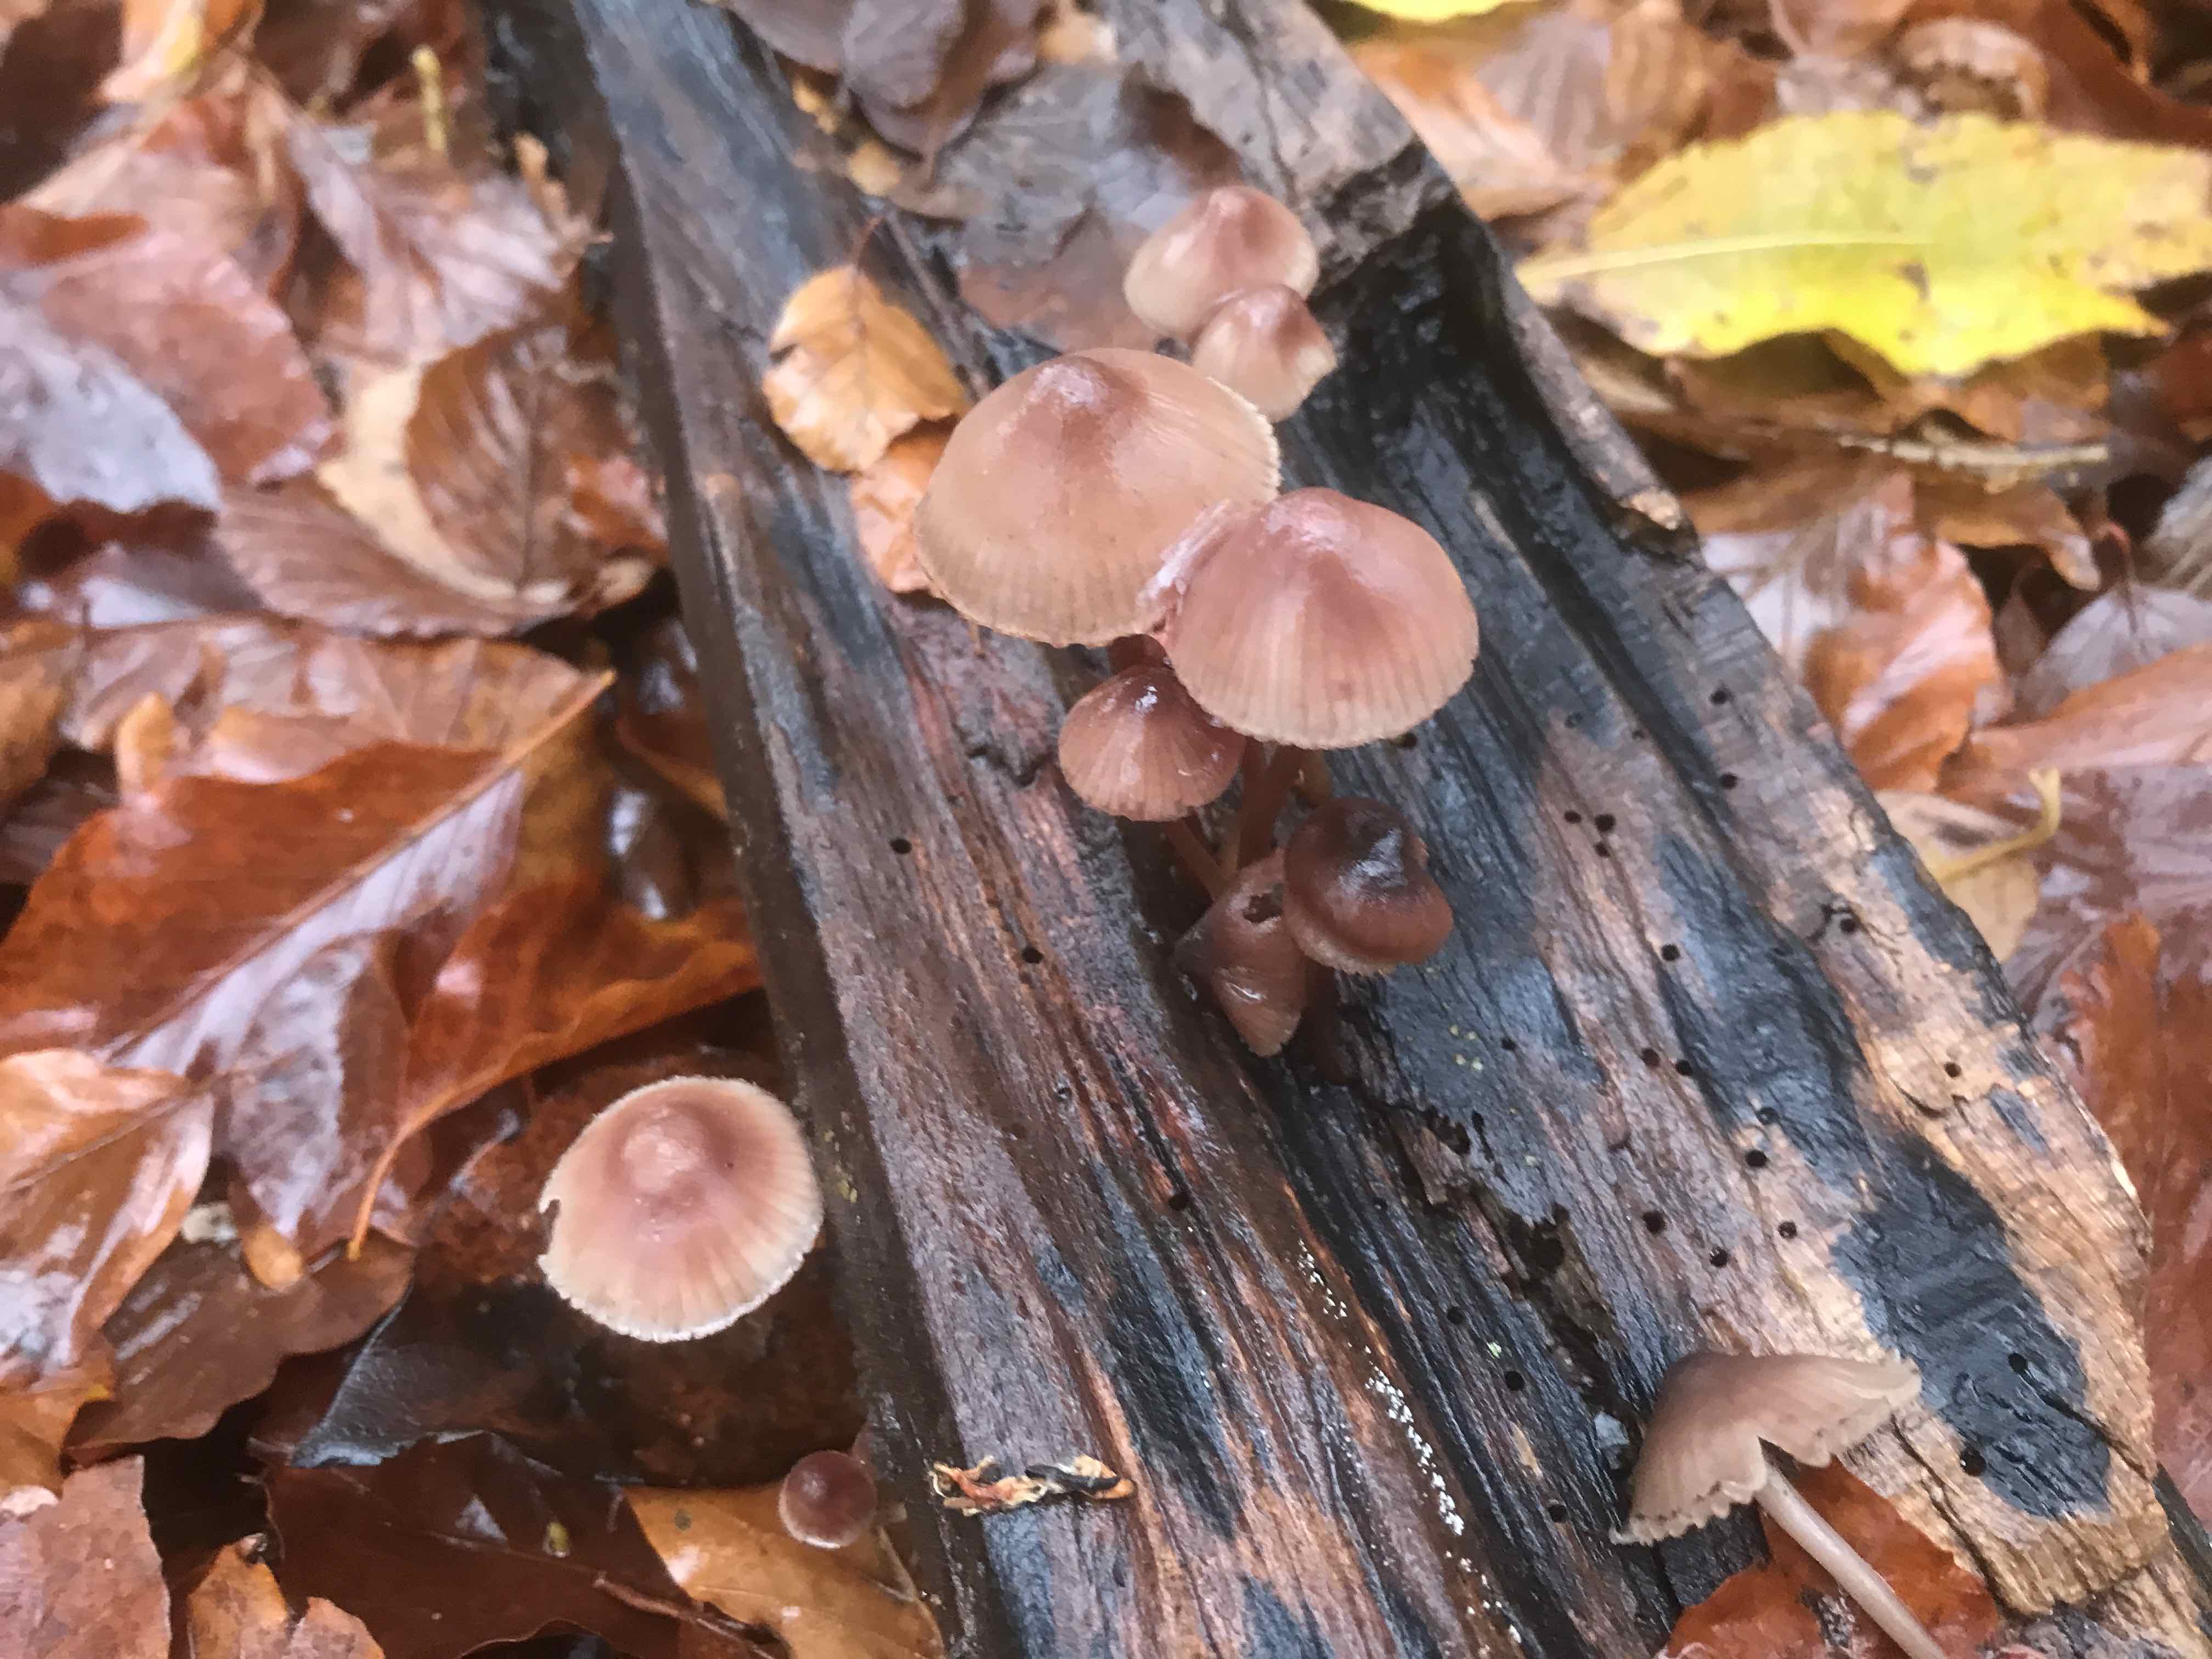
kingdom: Fungi
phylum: Basidiomycota
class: Agaricomycetes
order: Agaricales
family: Mycenaceae
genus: Mycena
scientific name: Mycena haematopus
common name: blødende huesvamp
